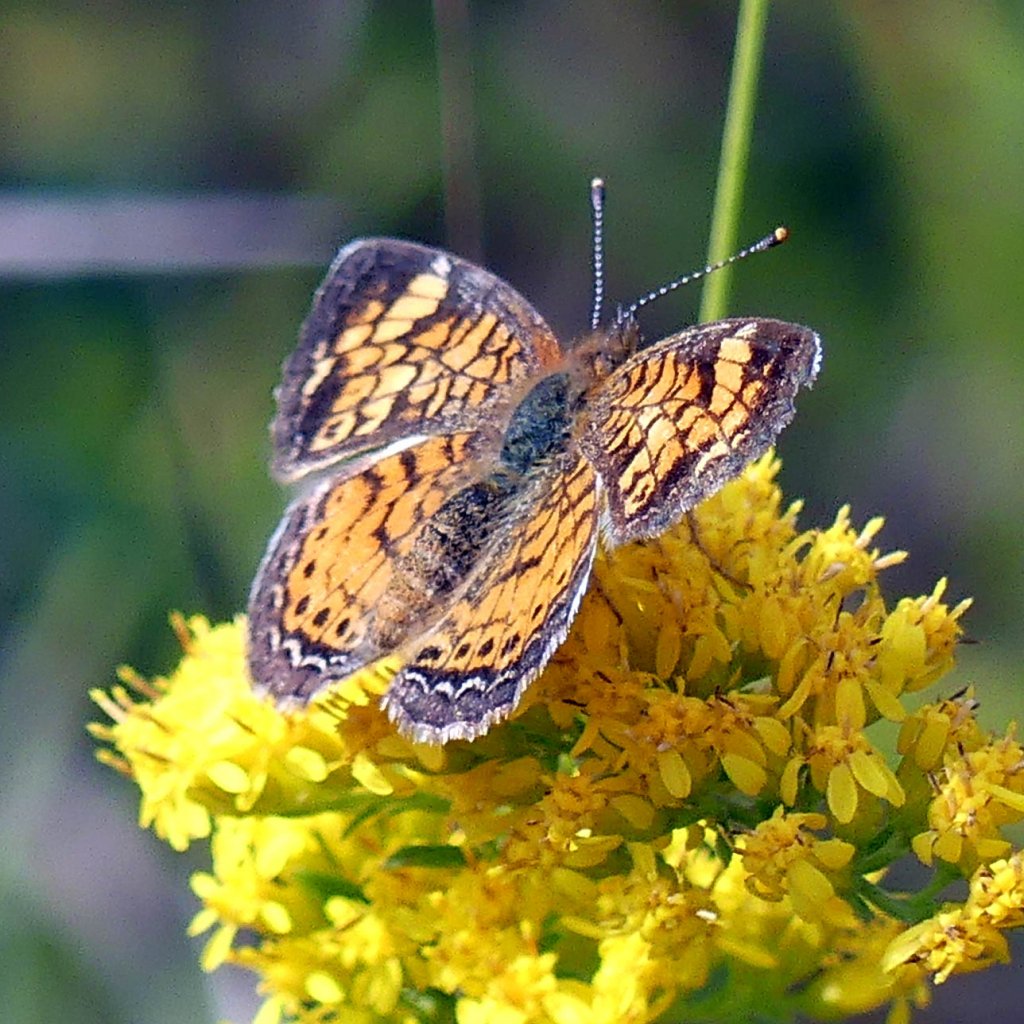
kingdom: Animalia
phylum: Arthropoda
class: Insecta
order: Lepidoptera
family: Nymphalidae
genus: Phyciodes
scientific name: Phyciodes tharos
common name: Northern Crescent
